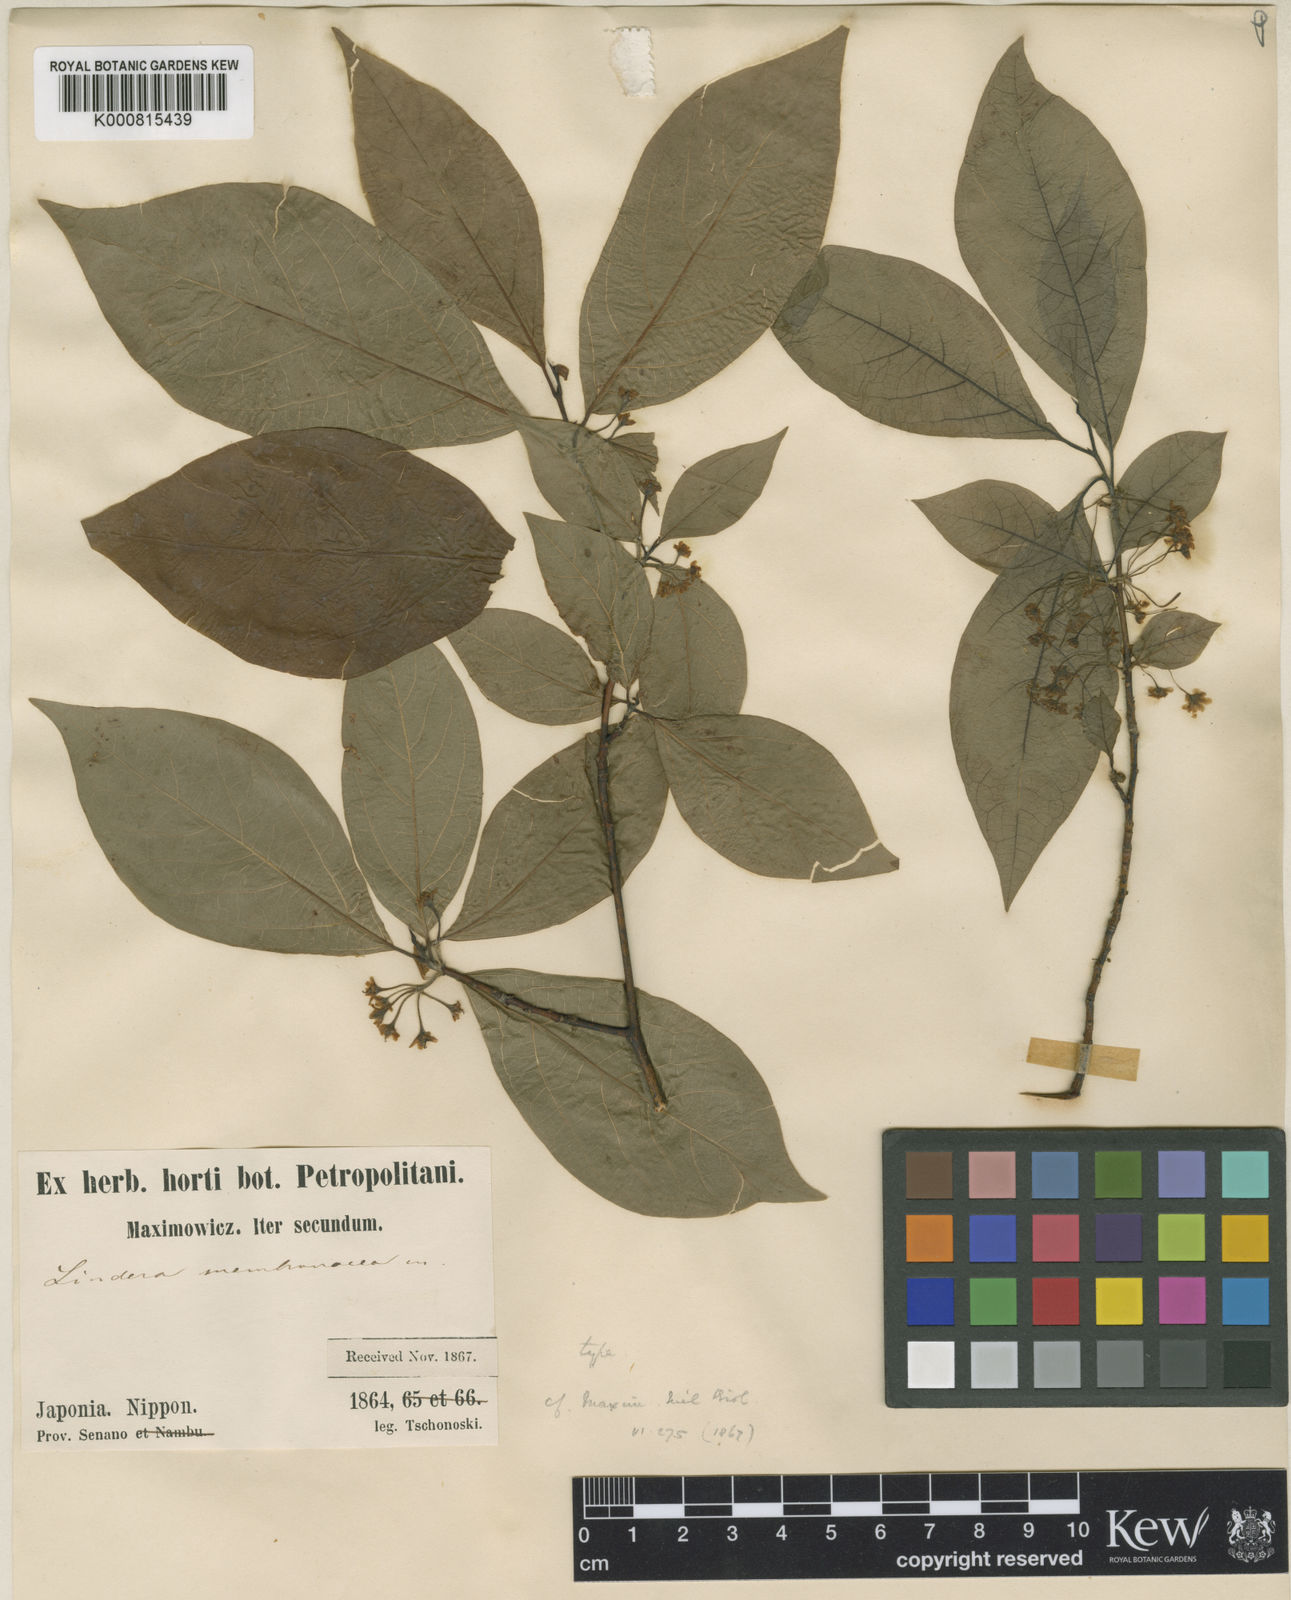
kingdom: Plantae
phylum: Tracheophyta
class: Magnoliopsida
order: Laurales
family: Lauraceae
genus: Lindera
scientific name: Lindera umbellata
